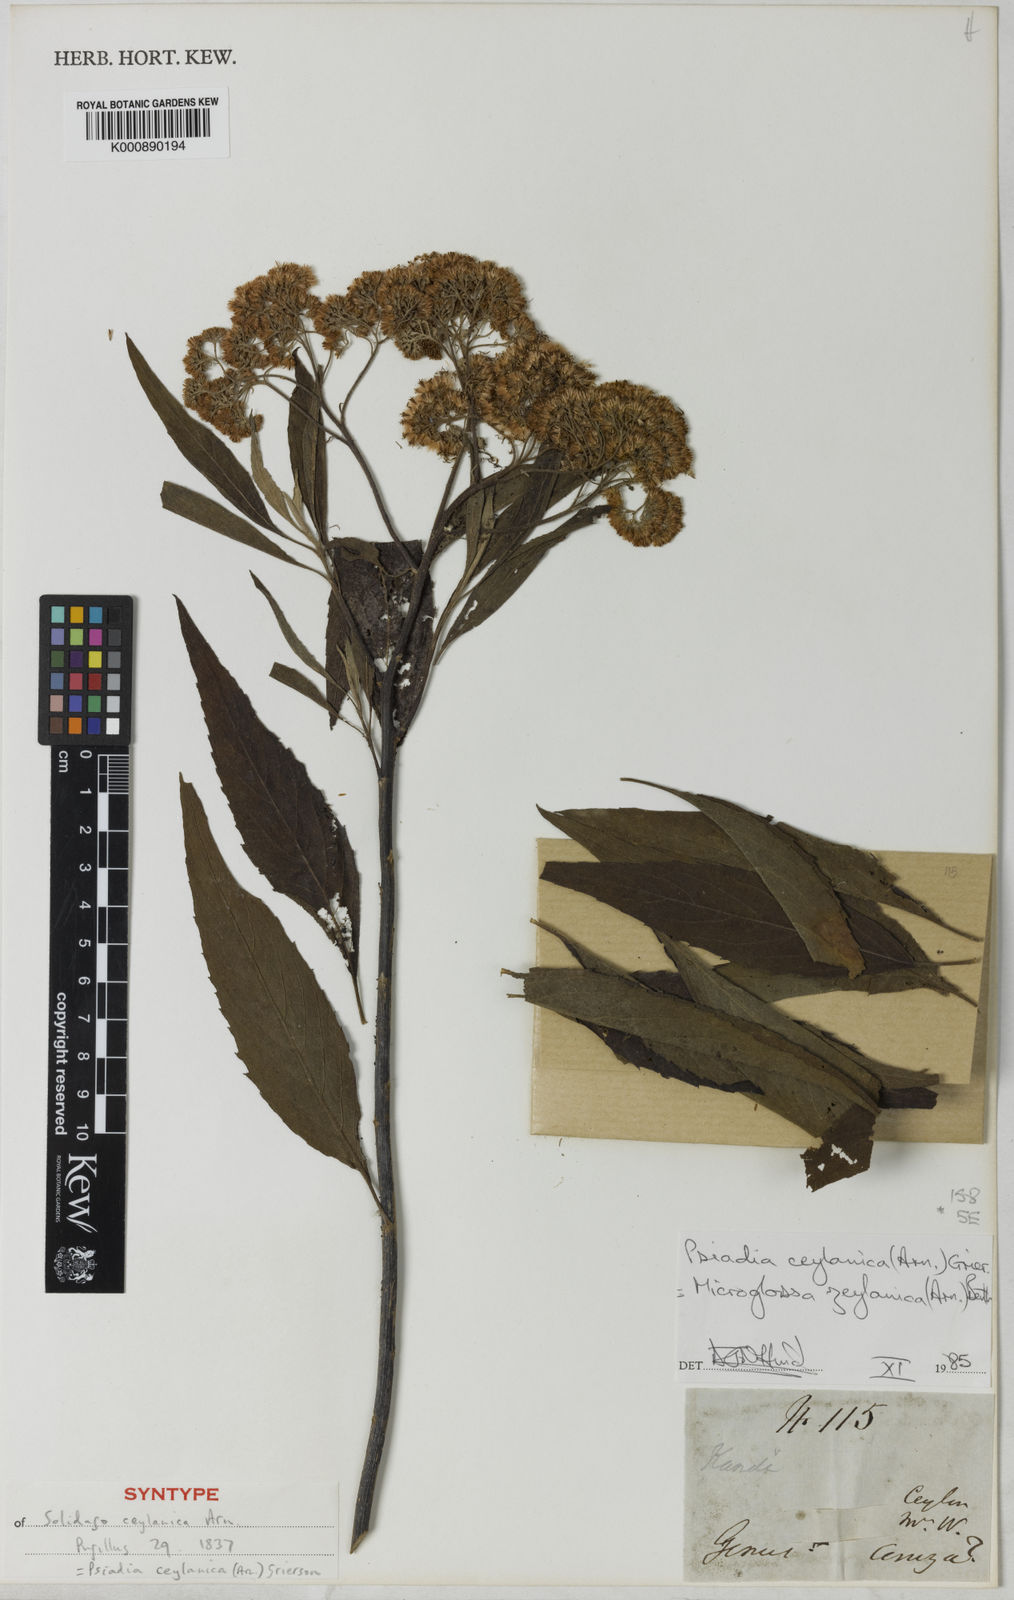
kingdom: Plantae
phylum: Tracheophyta
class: Magnoliopsida
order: Asterales
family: Asteraceae
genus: Psiadia
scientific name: Psiadia ceylanica
